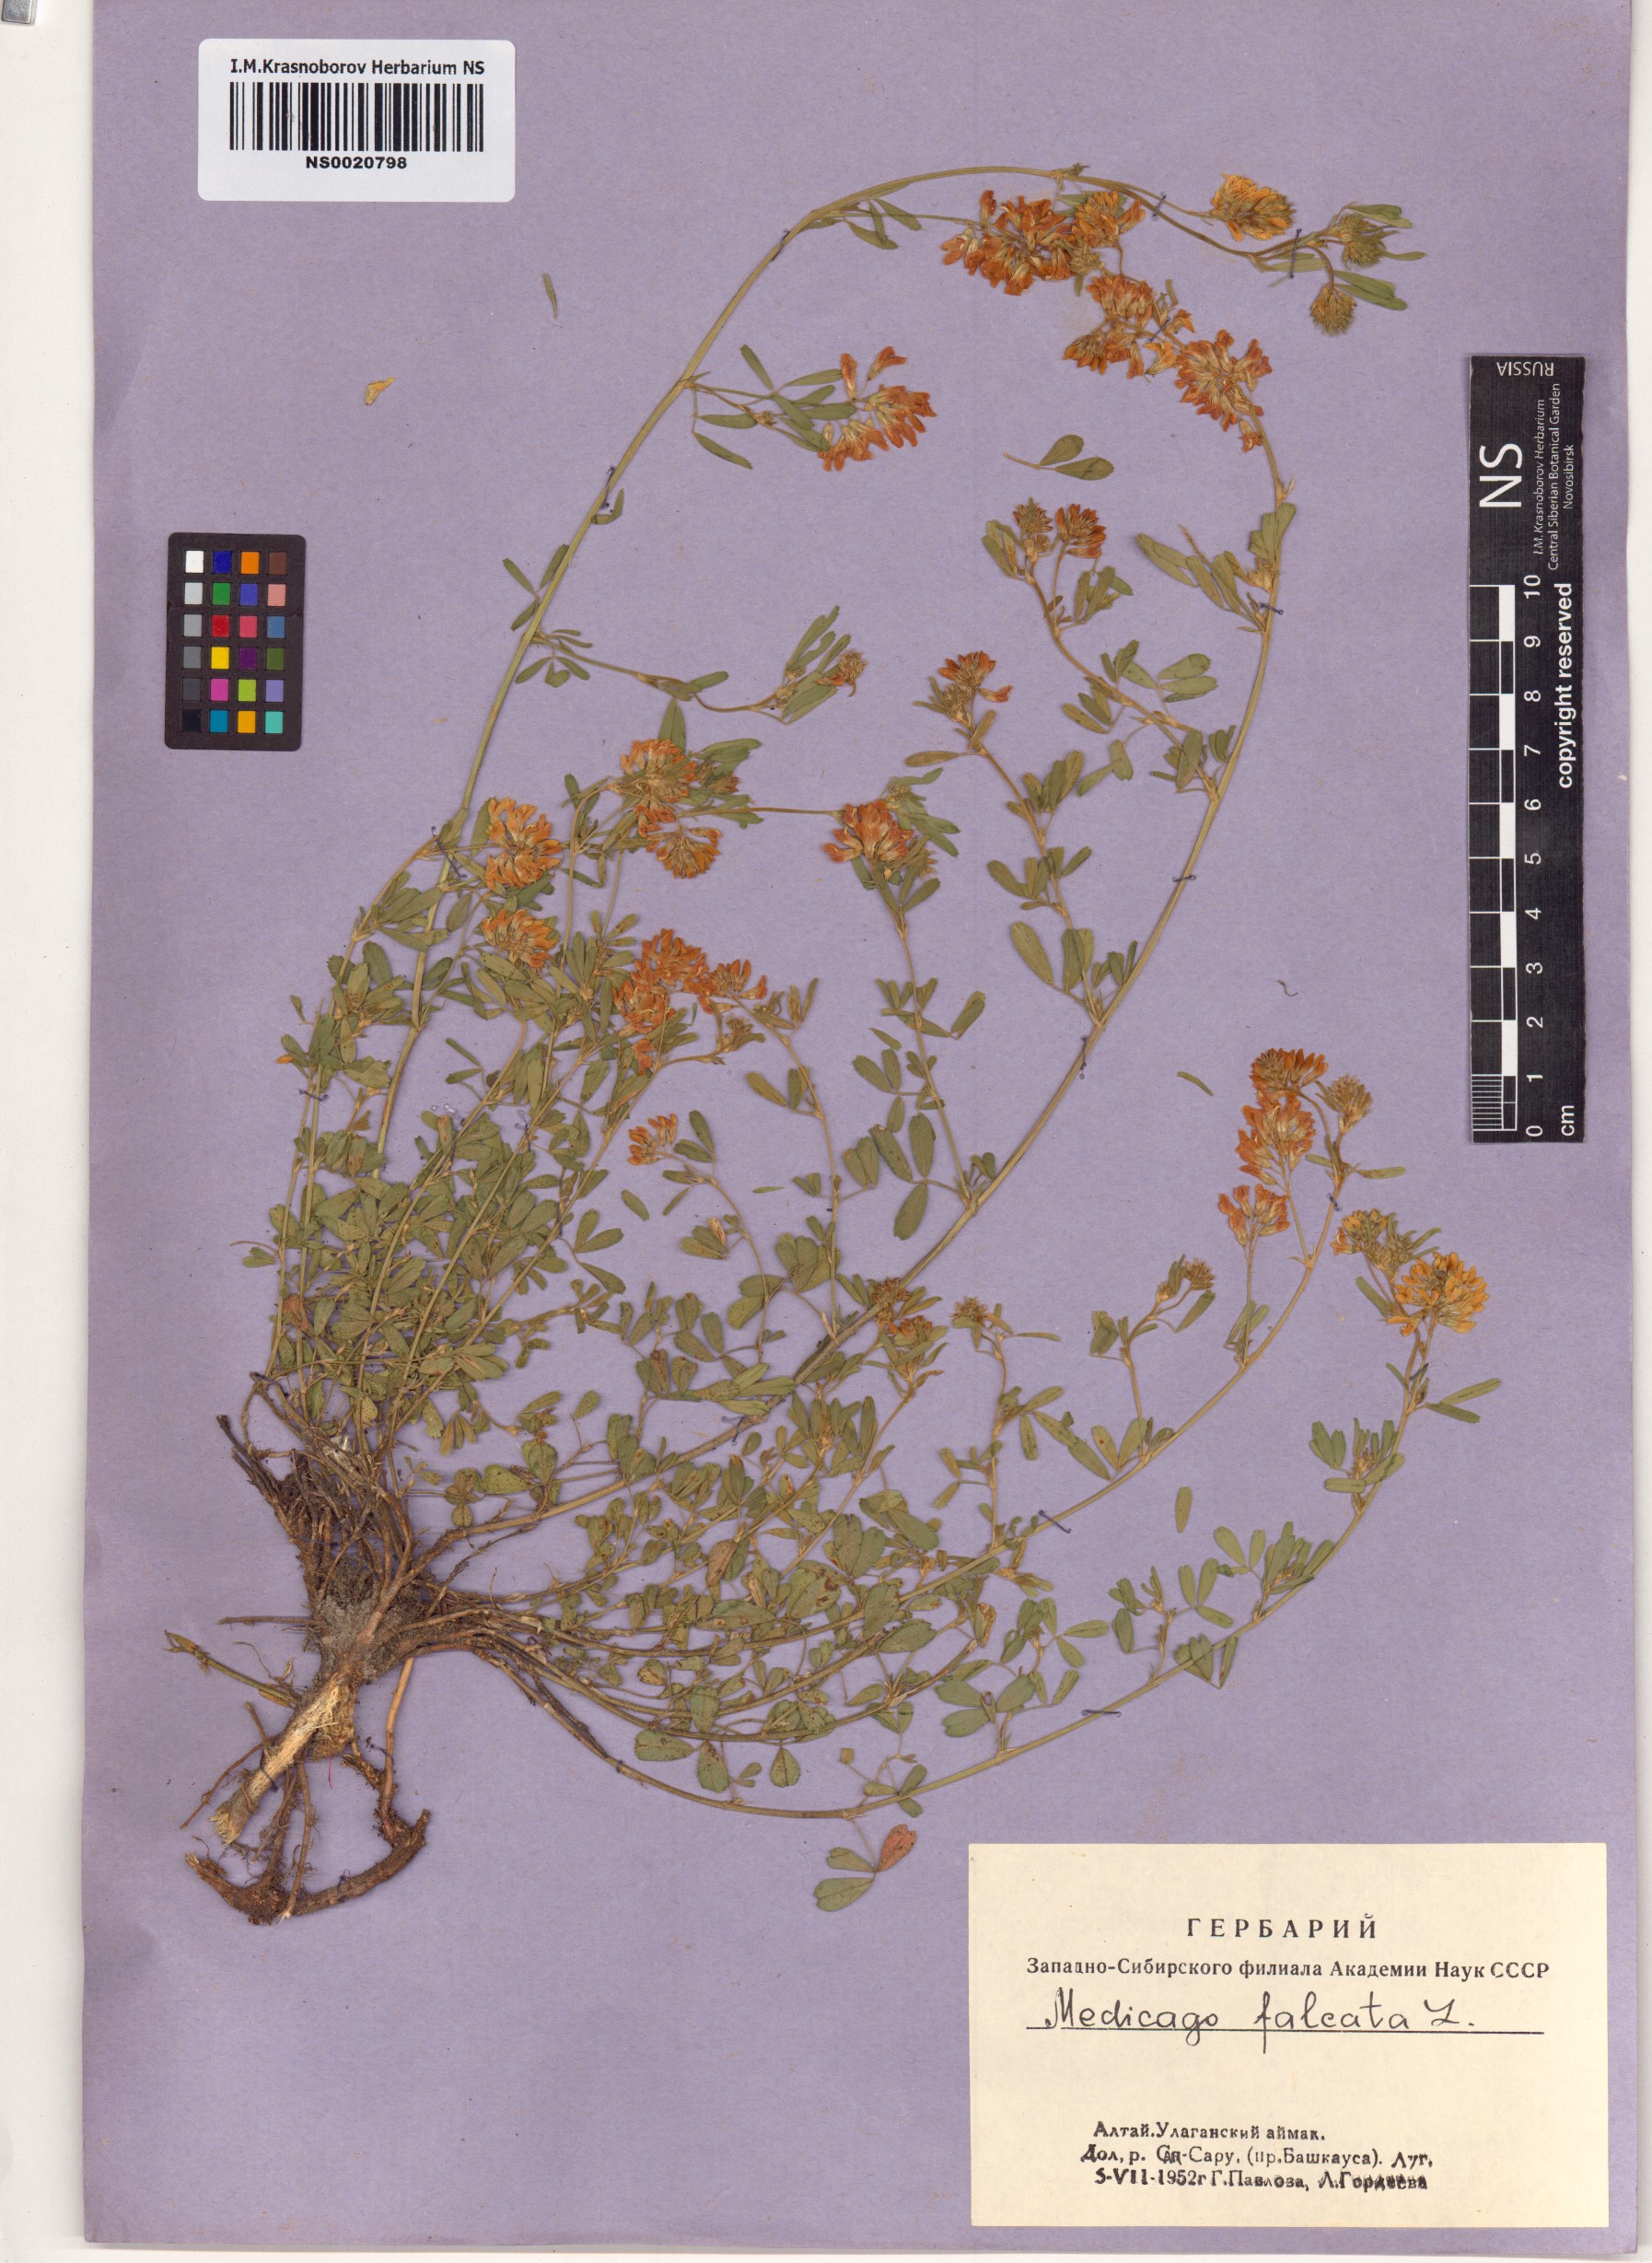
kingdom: Plantae
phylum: Tracheophyta
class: Magnoliopsida
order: Fabales
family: Fabaceae
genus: Medicago
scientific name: Medicago falcata
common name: Sickle medick
